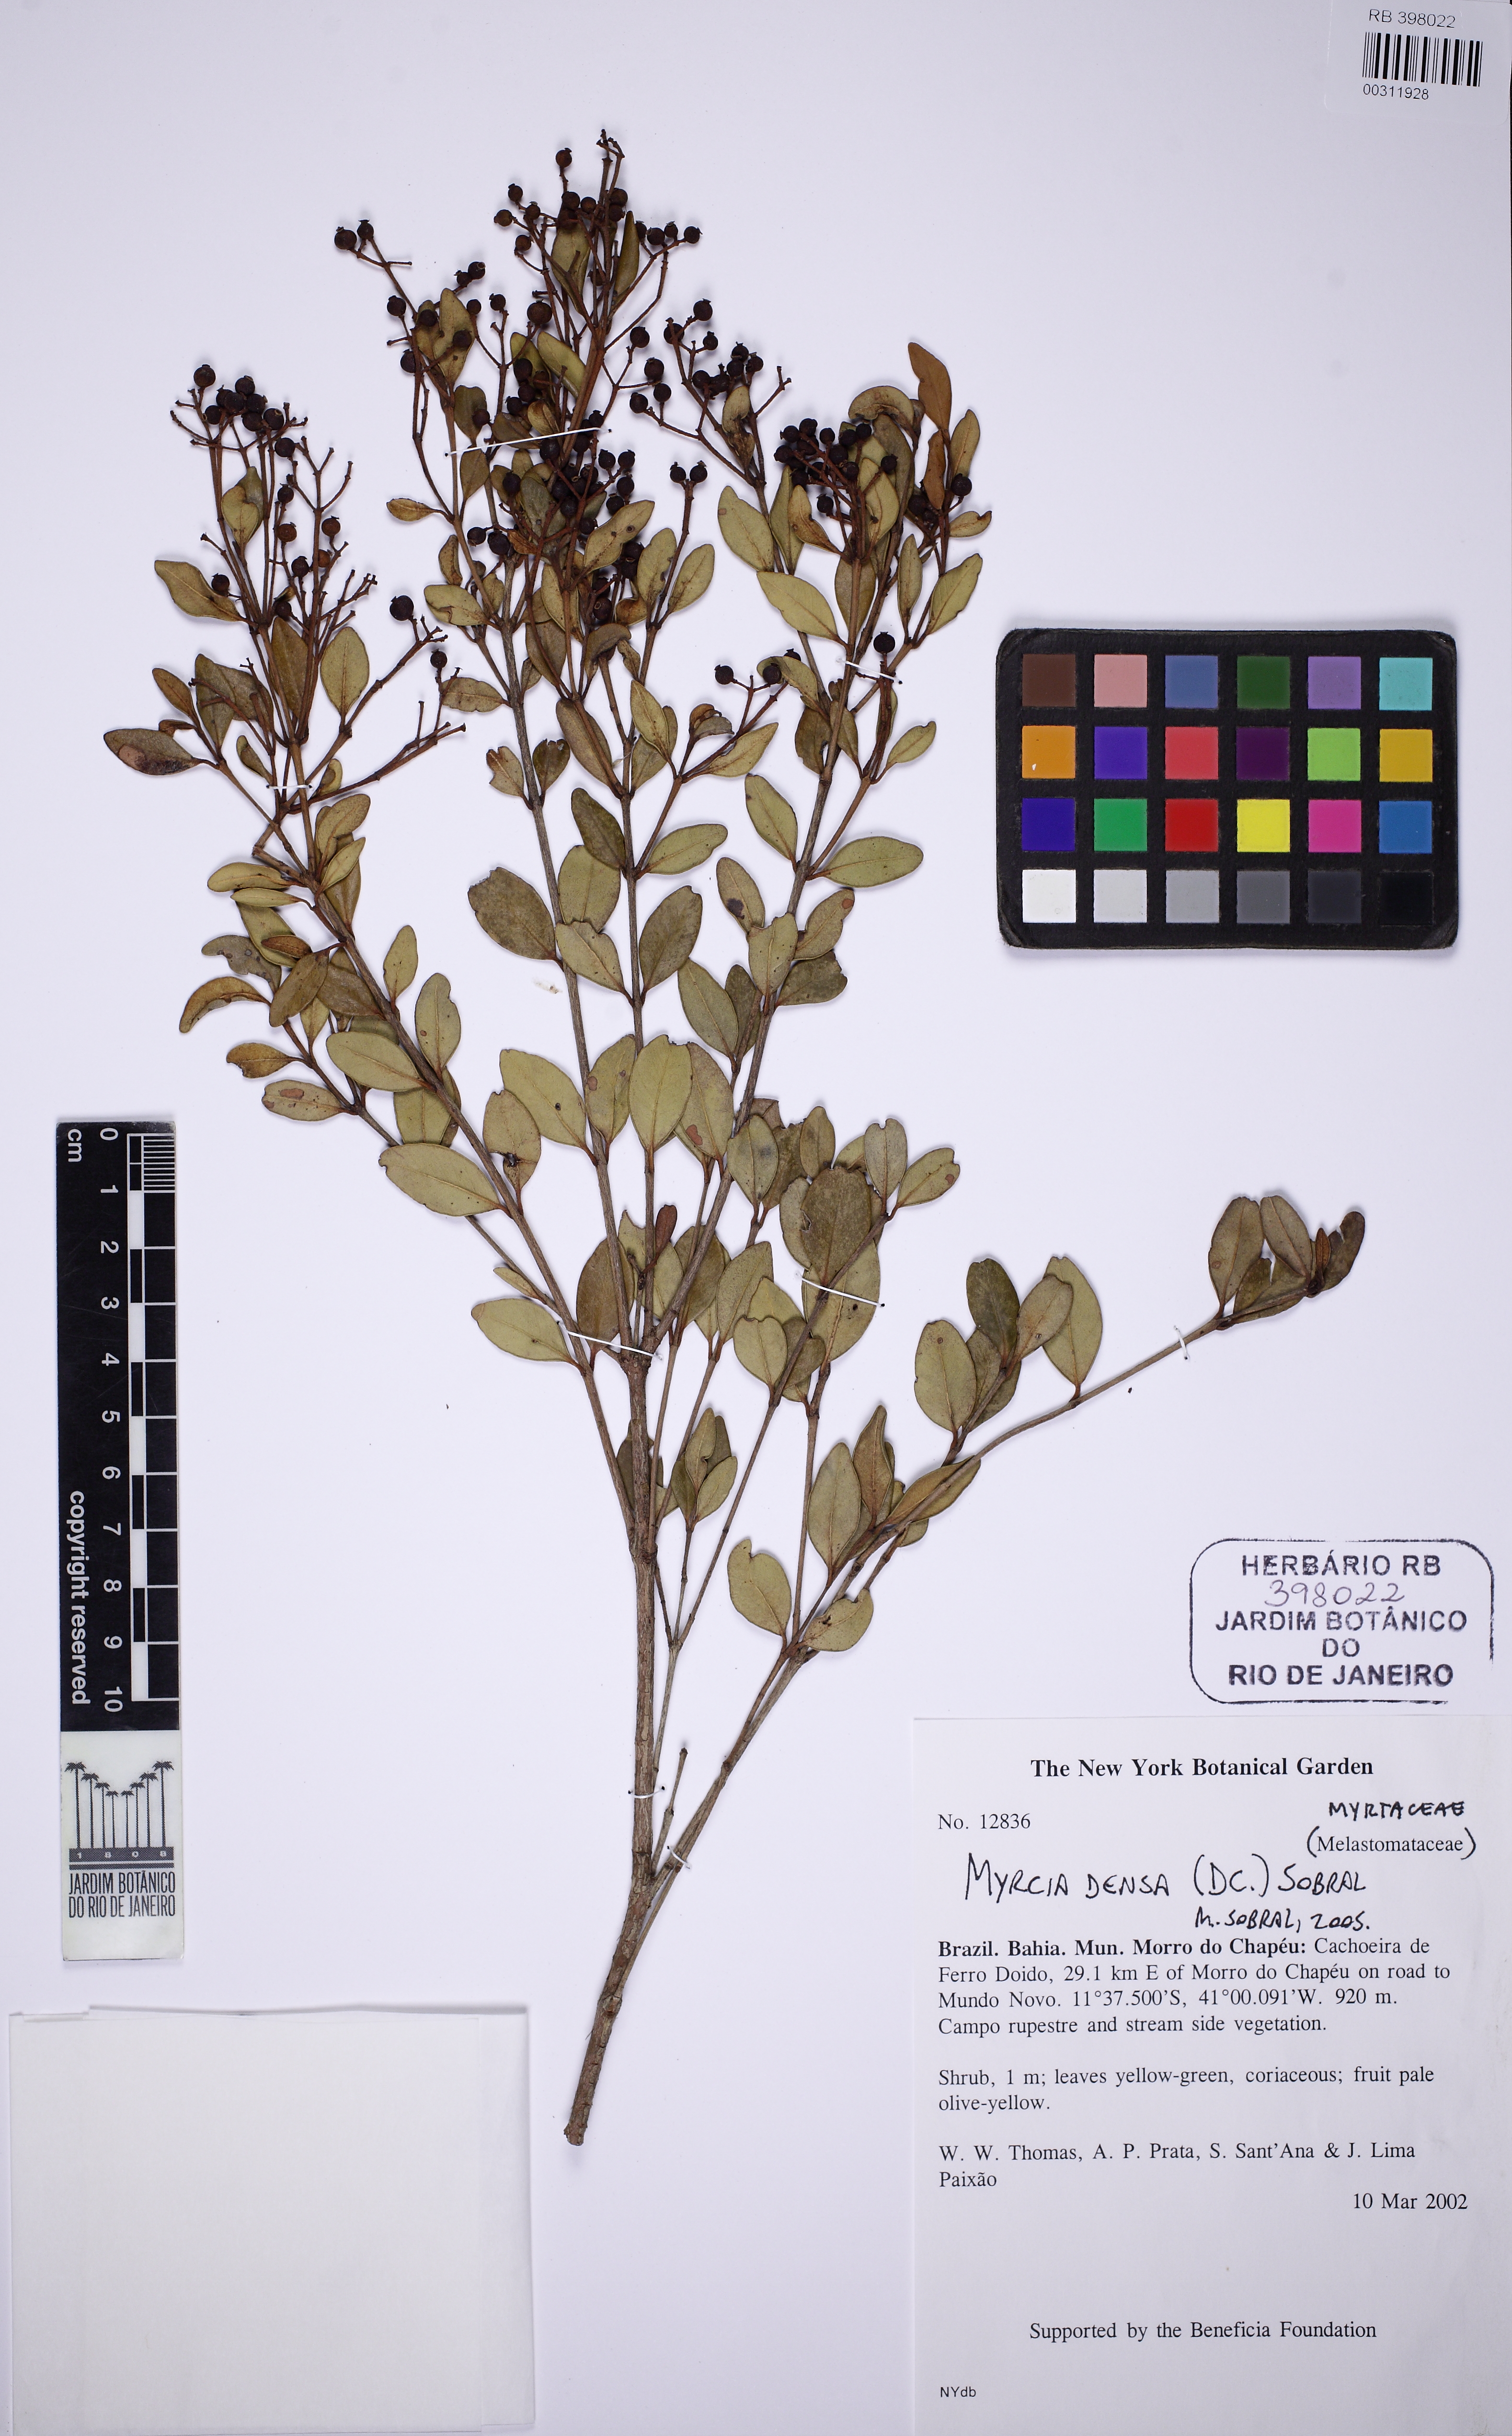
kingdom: Plantae
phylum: Tracheophyta
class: Magnoliopsida
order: Myrtales
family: Myrtaceae
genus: Myrcia
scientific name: Myrcia densa
